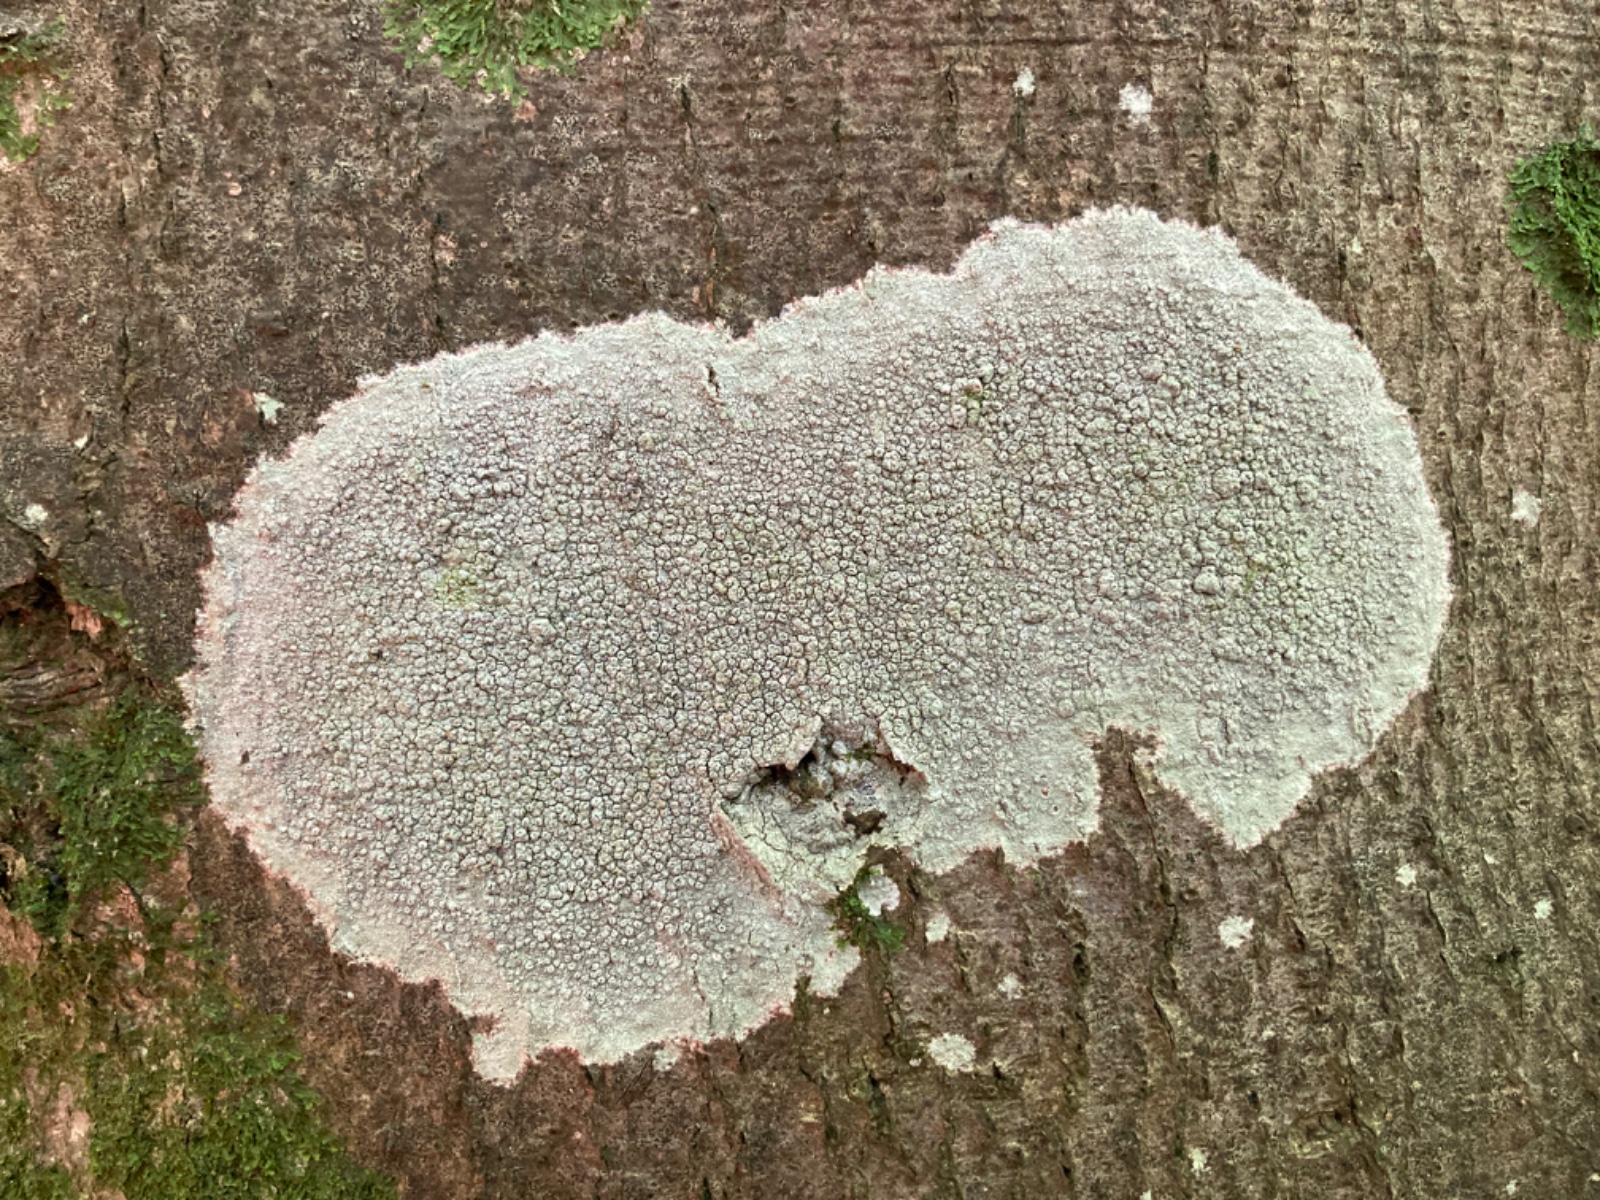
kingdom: Fungi
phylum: Ascomycota
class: Lecanoromycetes
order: Pertusariales
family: Pertusariaceae
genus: Pertusaria
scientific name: Pertusaria hymenea
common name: åben prikvortelav
